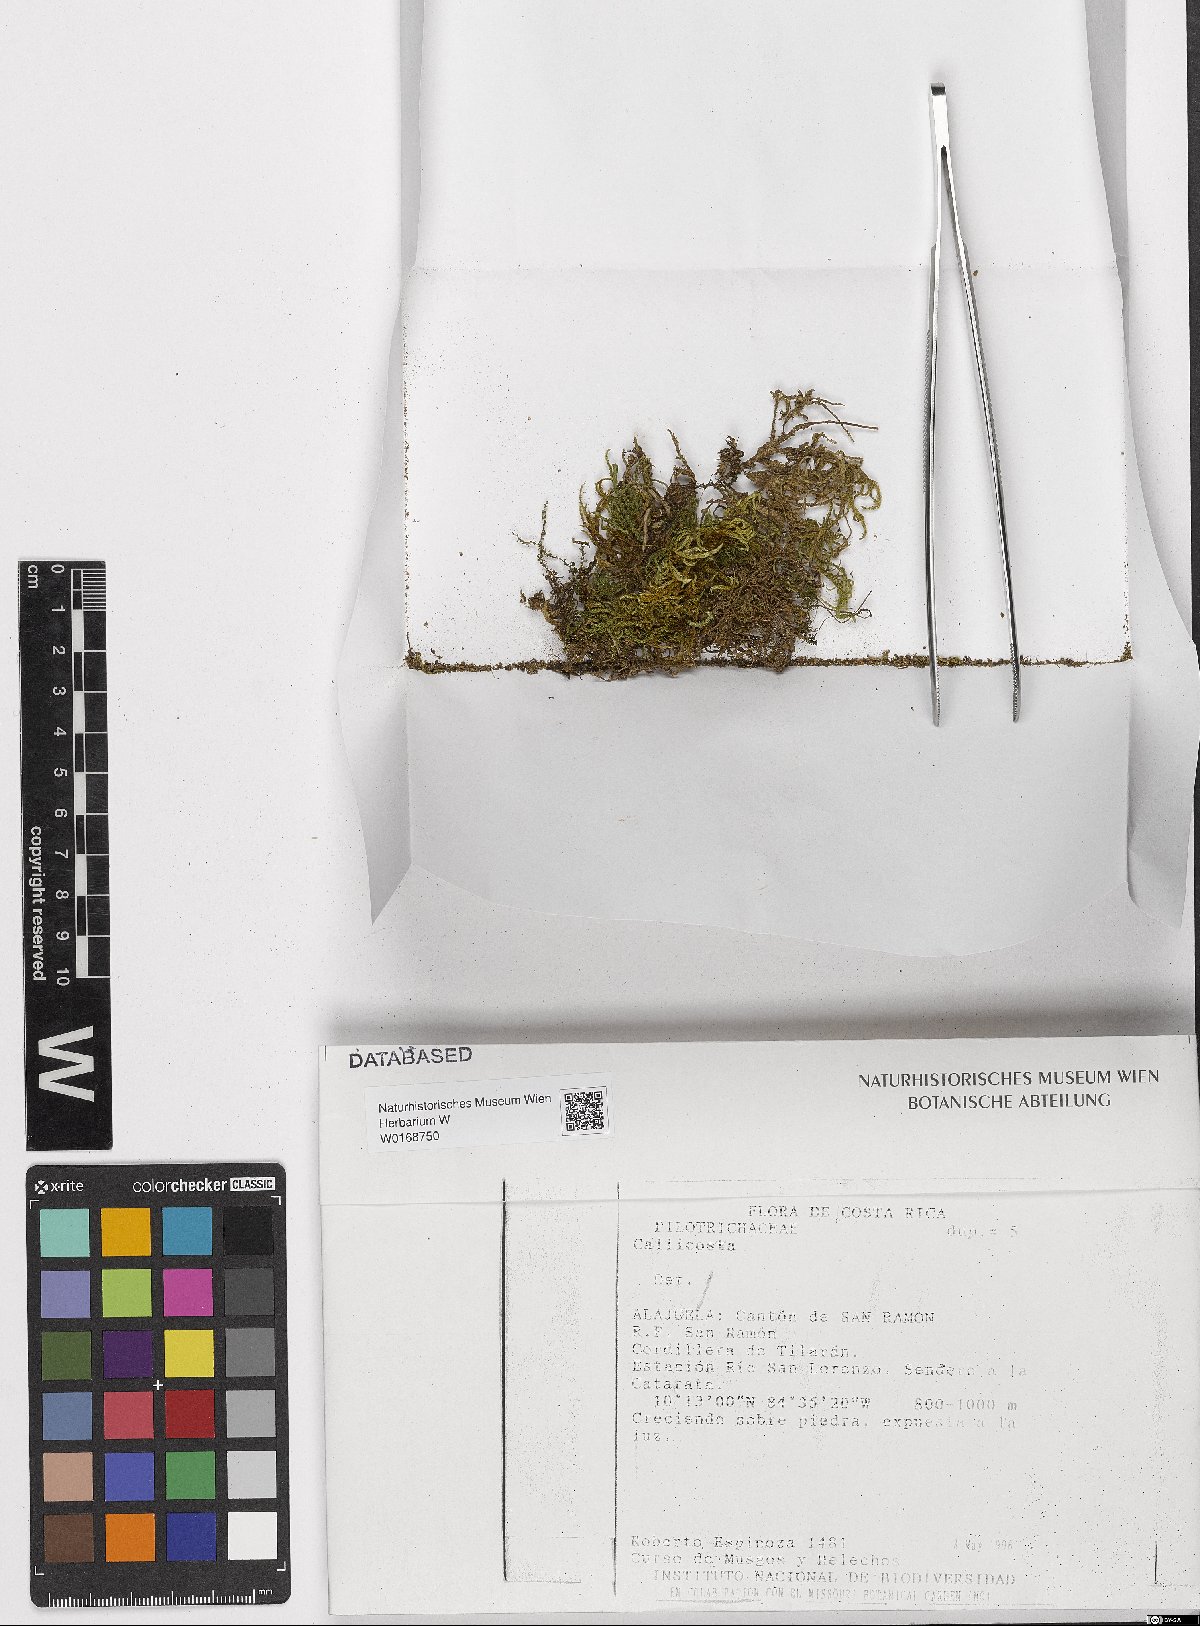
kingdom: Plantae
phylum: Bryophyta
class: Bryopsida
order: Hookeriales
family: Pilotrichaceae
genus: Pilotrichum
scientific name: Pilotrichum
